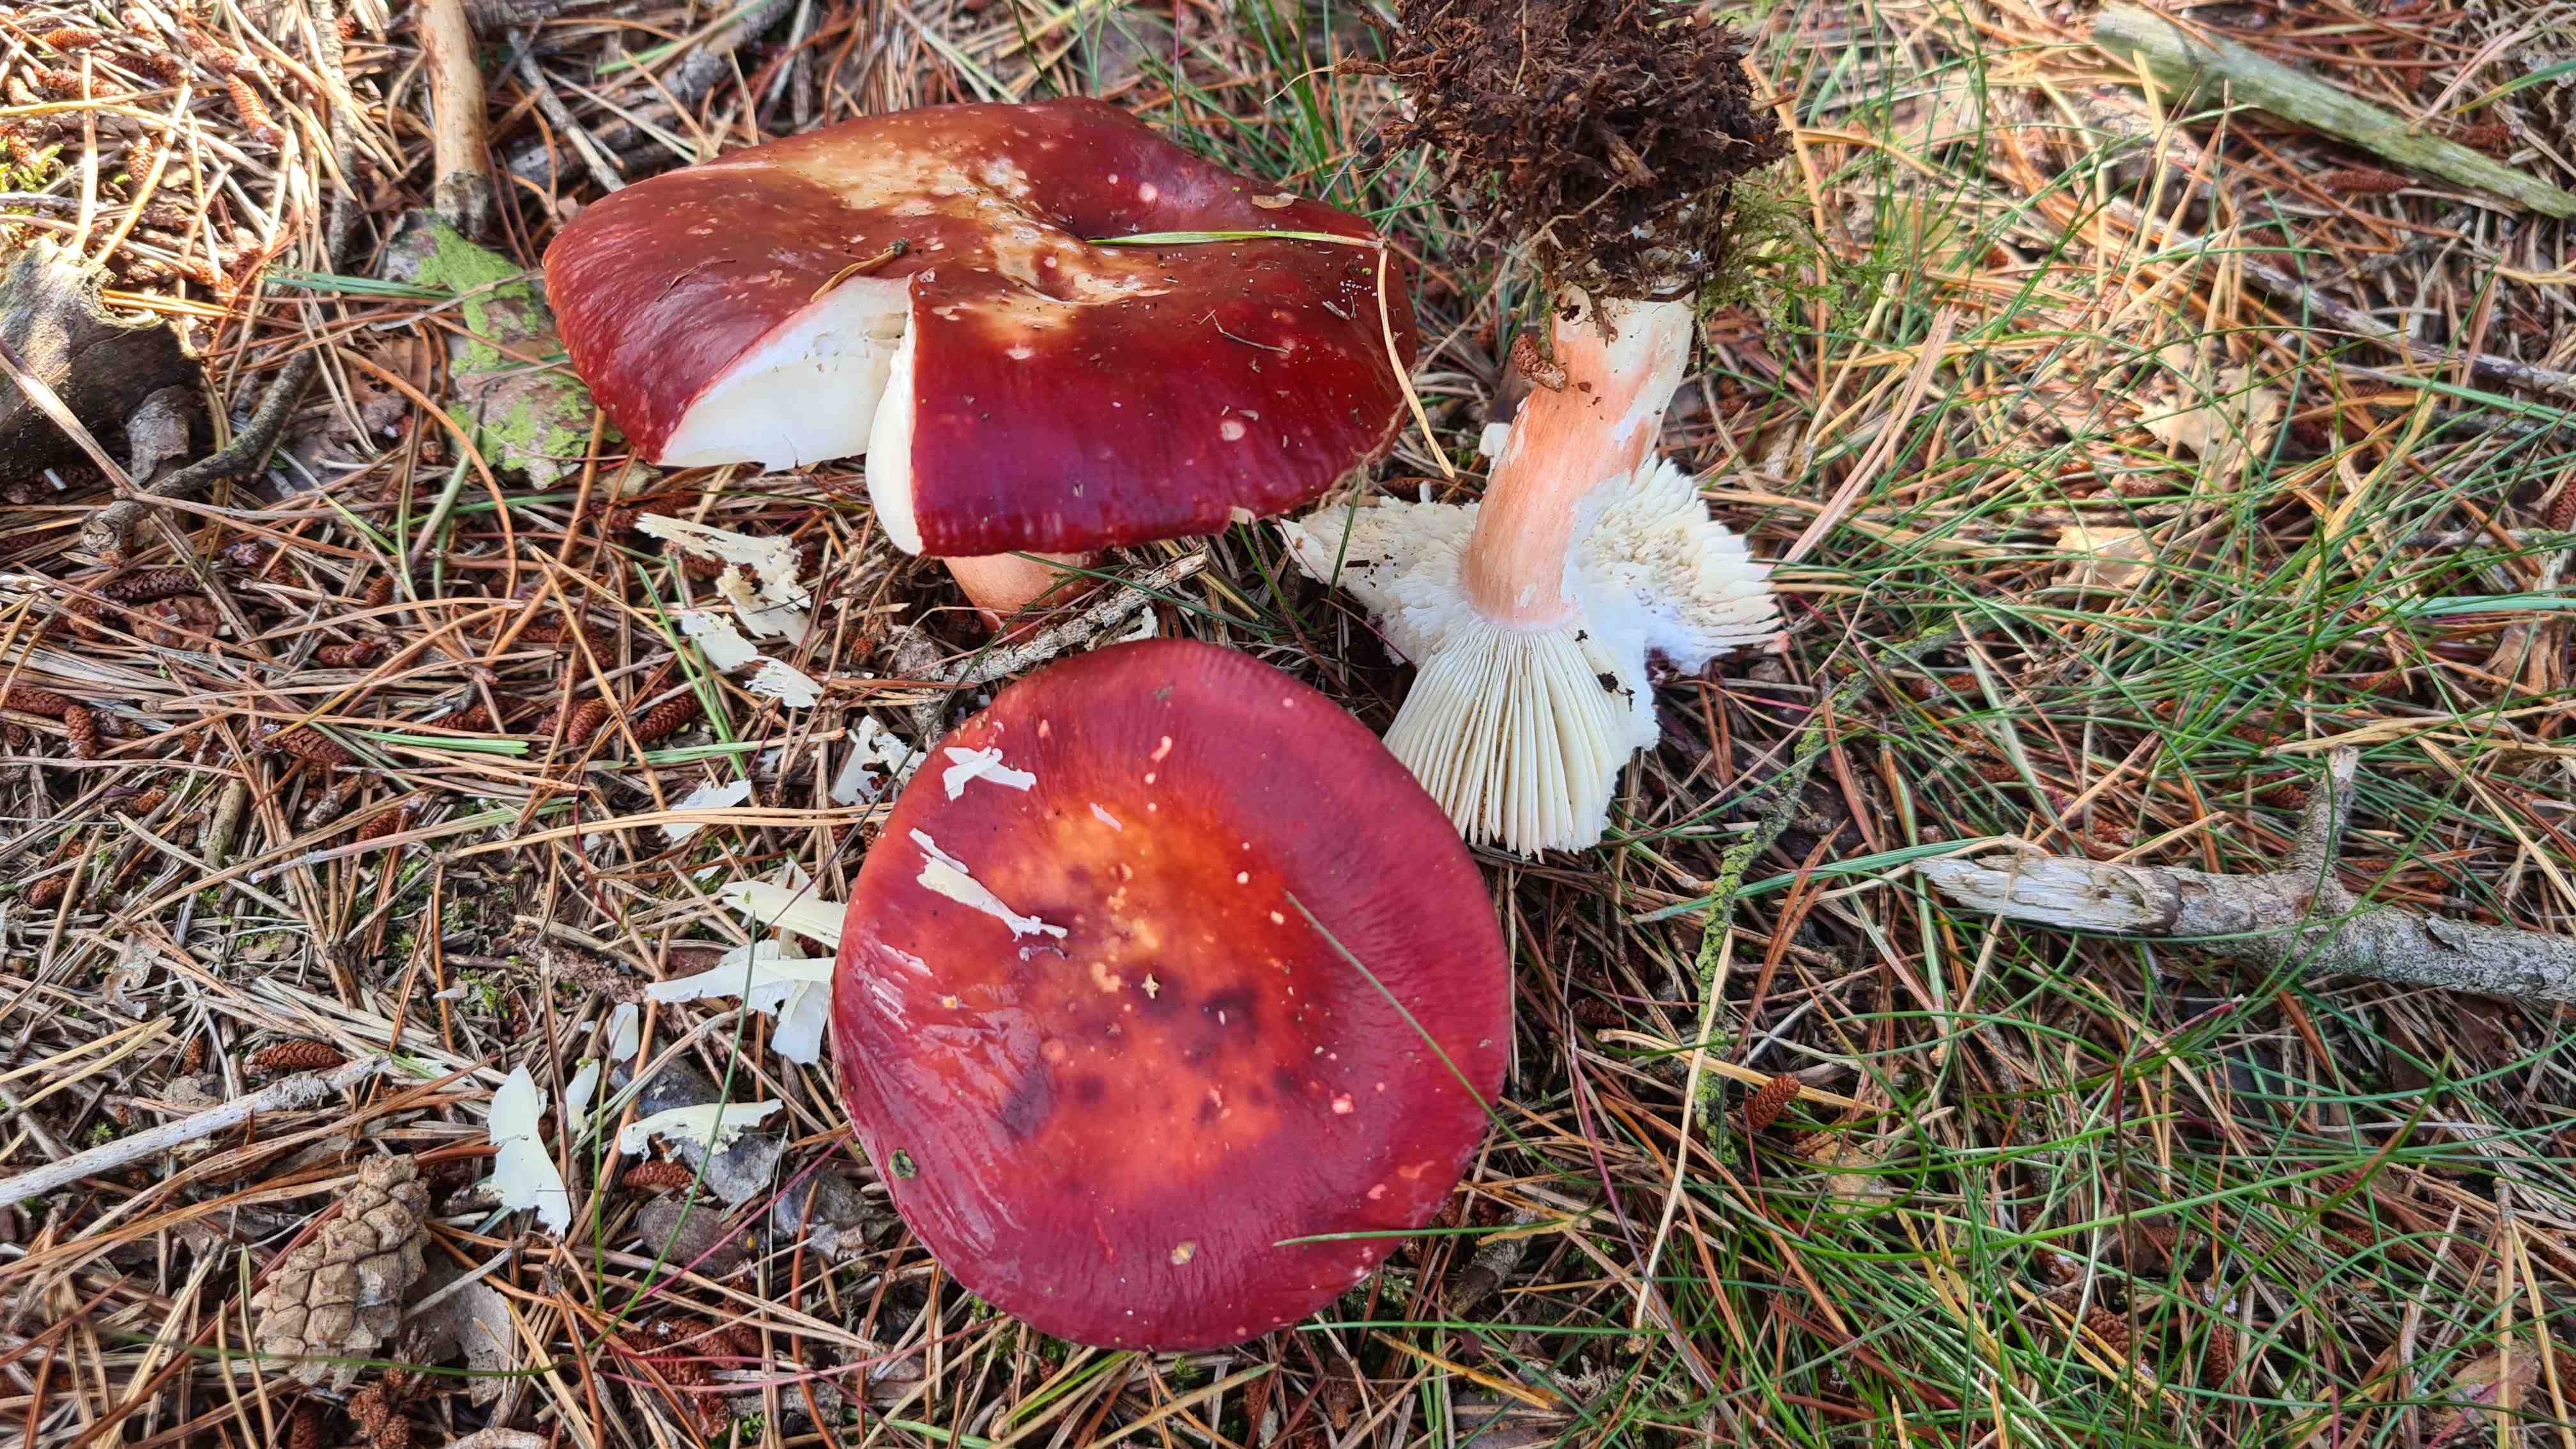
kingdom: Fungi
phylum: Basidiomycota
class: Agaricomycetes
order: Russulales
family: Russulaceae
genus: Russula
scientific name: Russula paludosa
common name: prægtig skørhat
